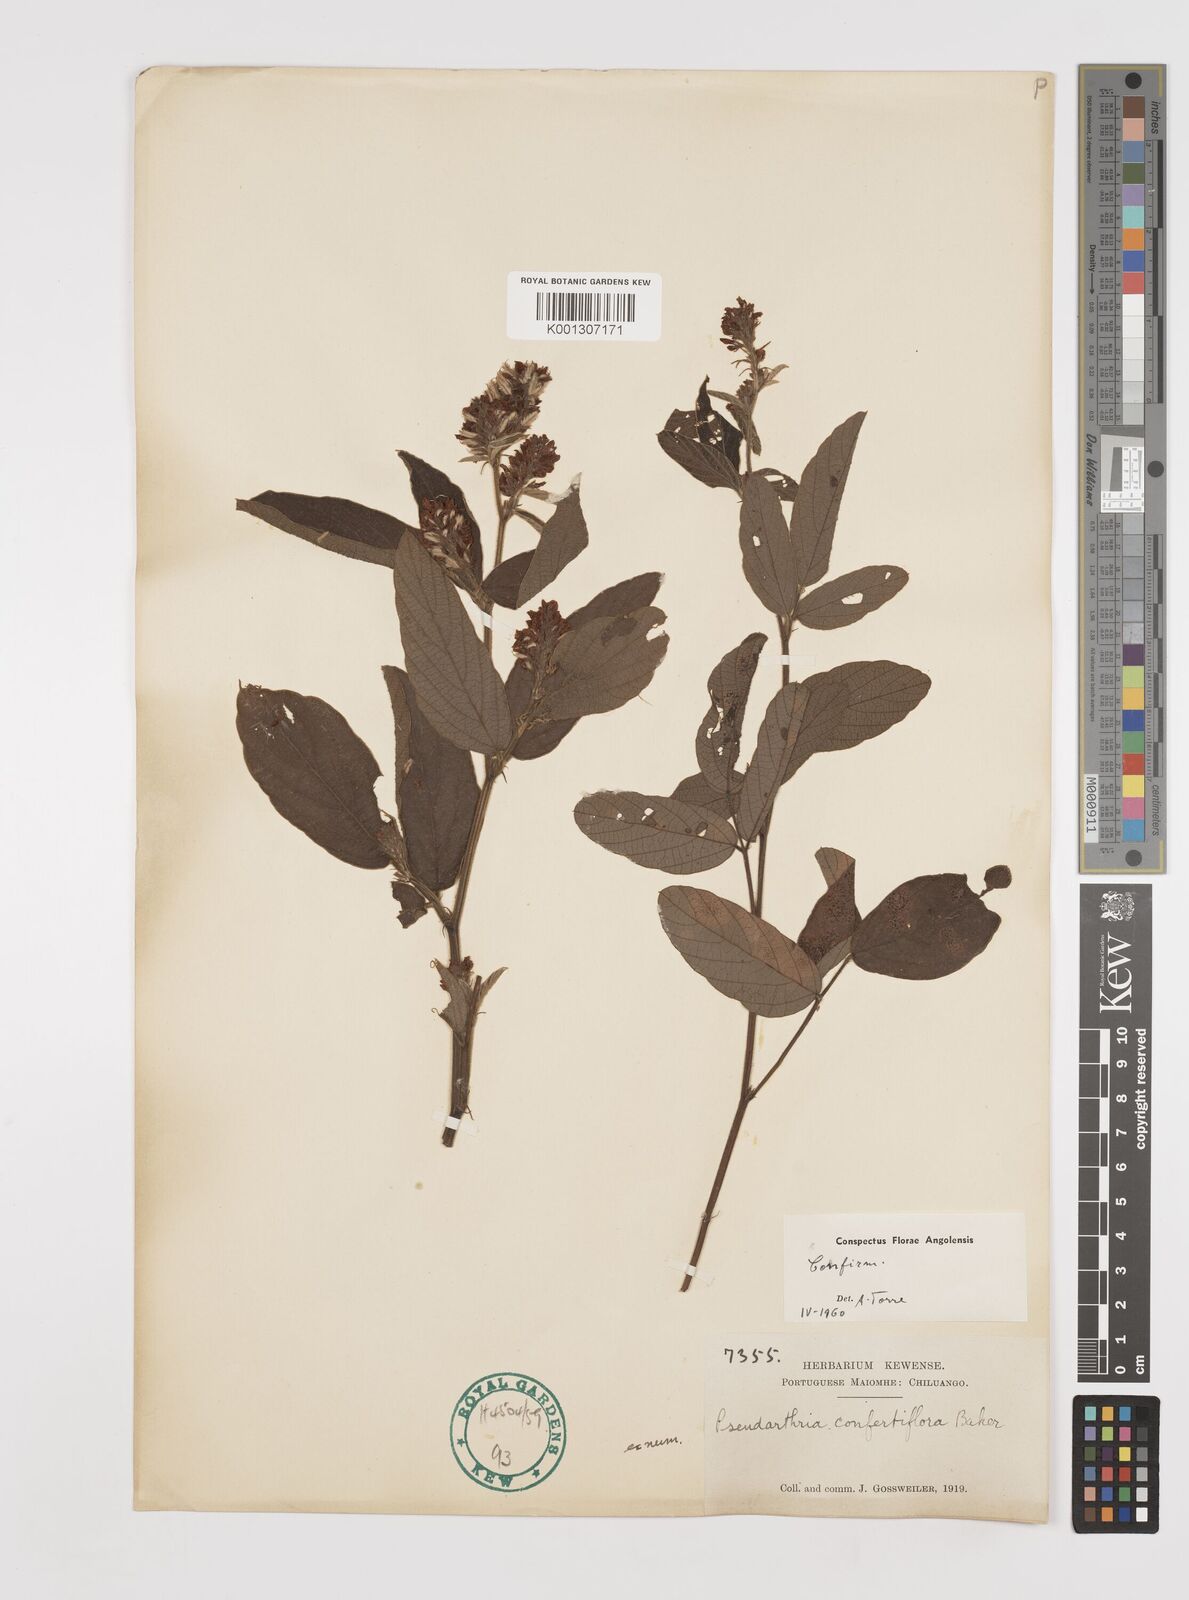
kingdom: Plantae
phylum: Tracheophyta
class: Magnoliopsida
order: Fabales
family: Fabaceae
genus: Pseudarthria
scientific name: Pseudarthria confertiflora
